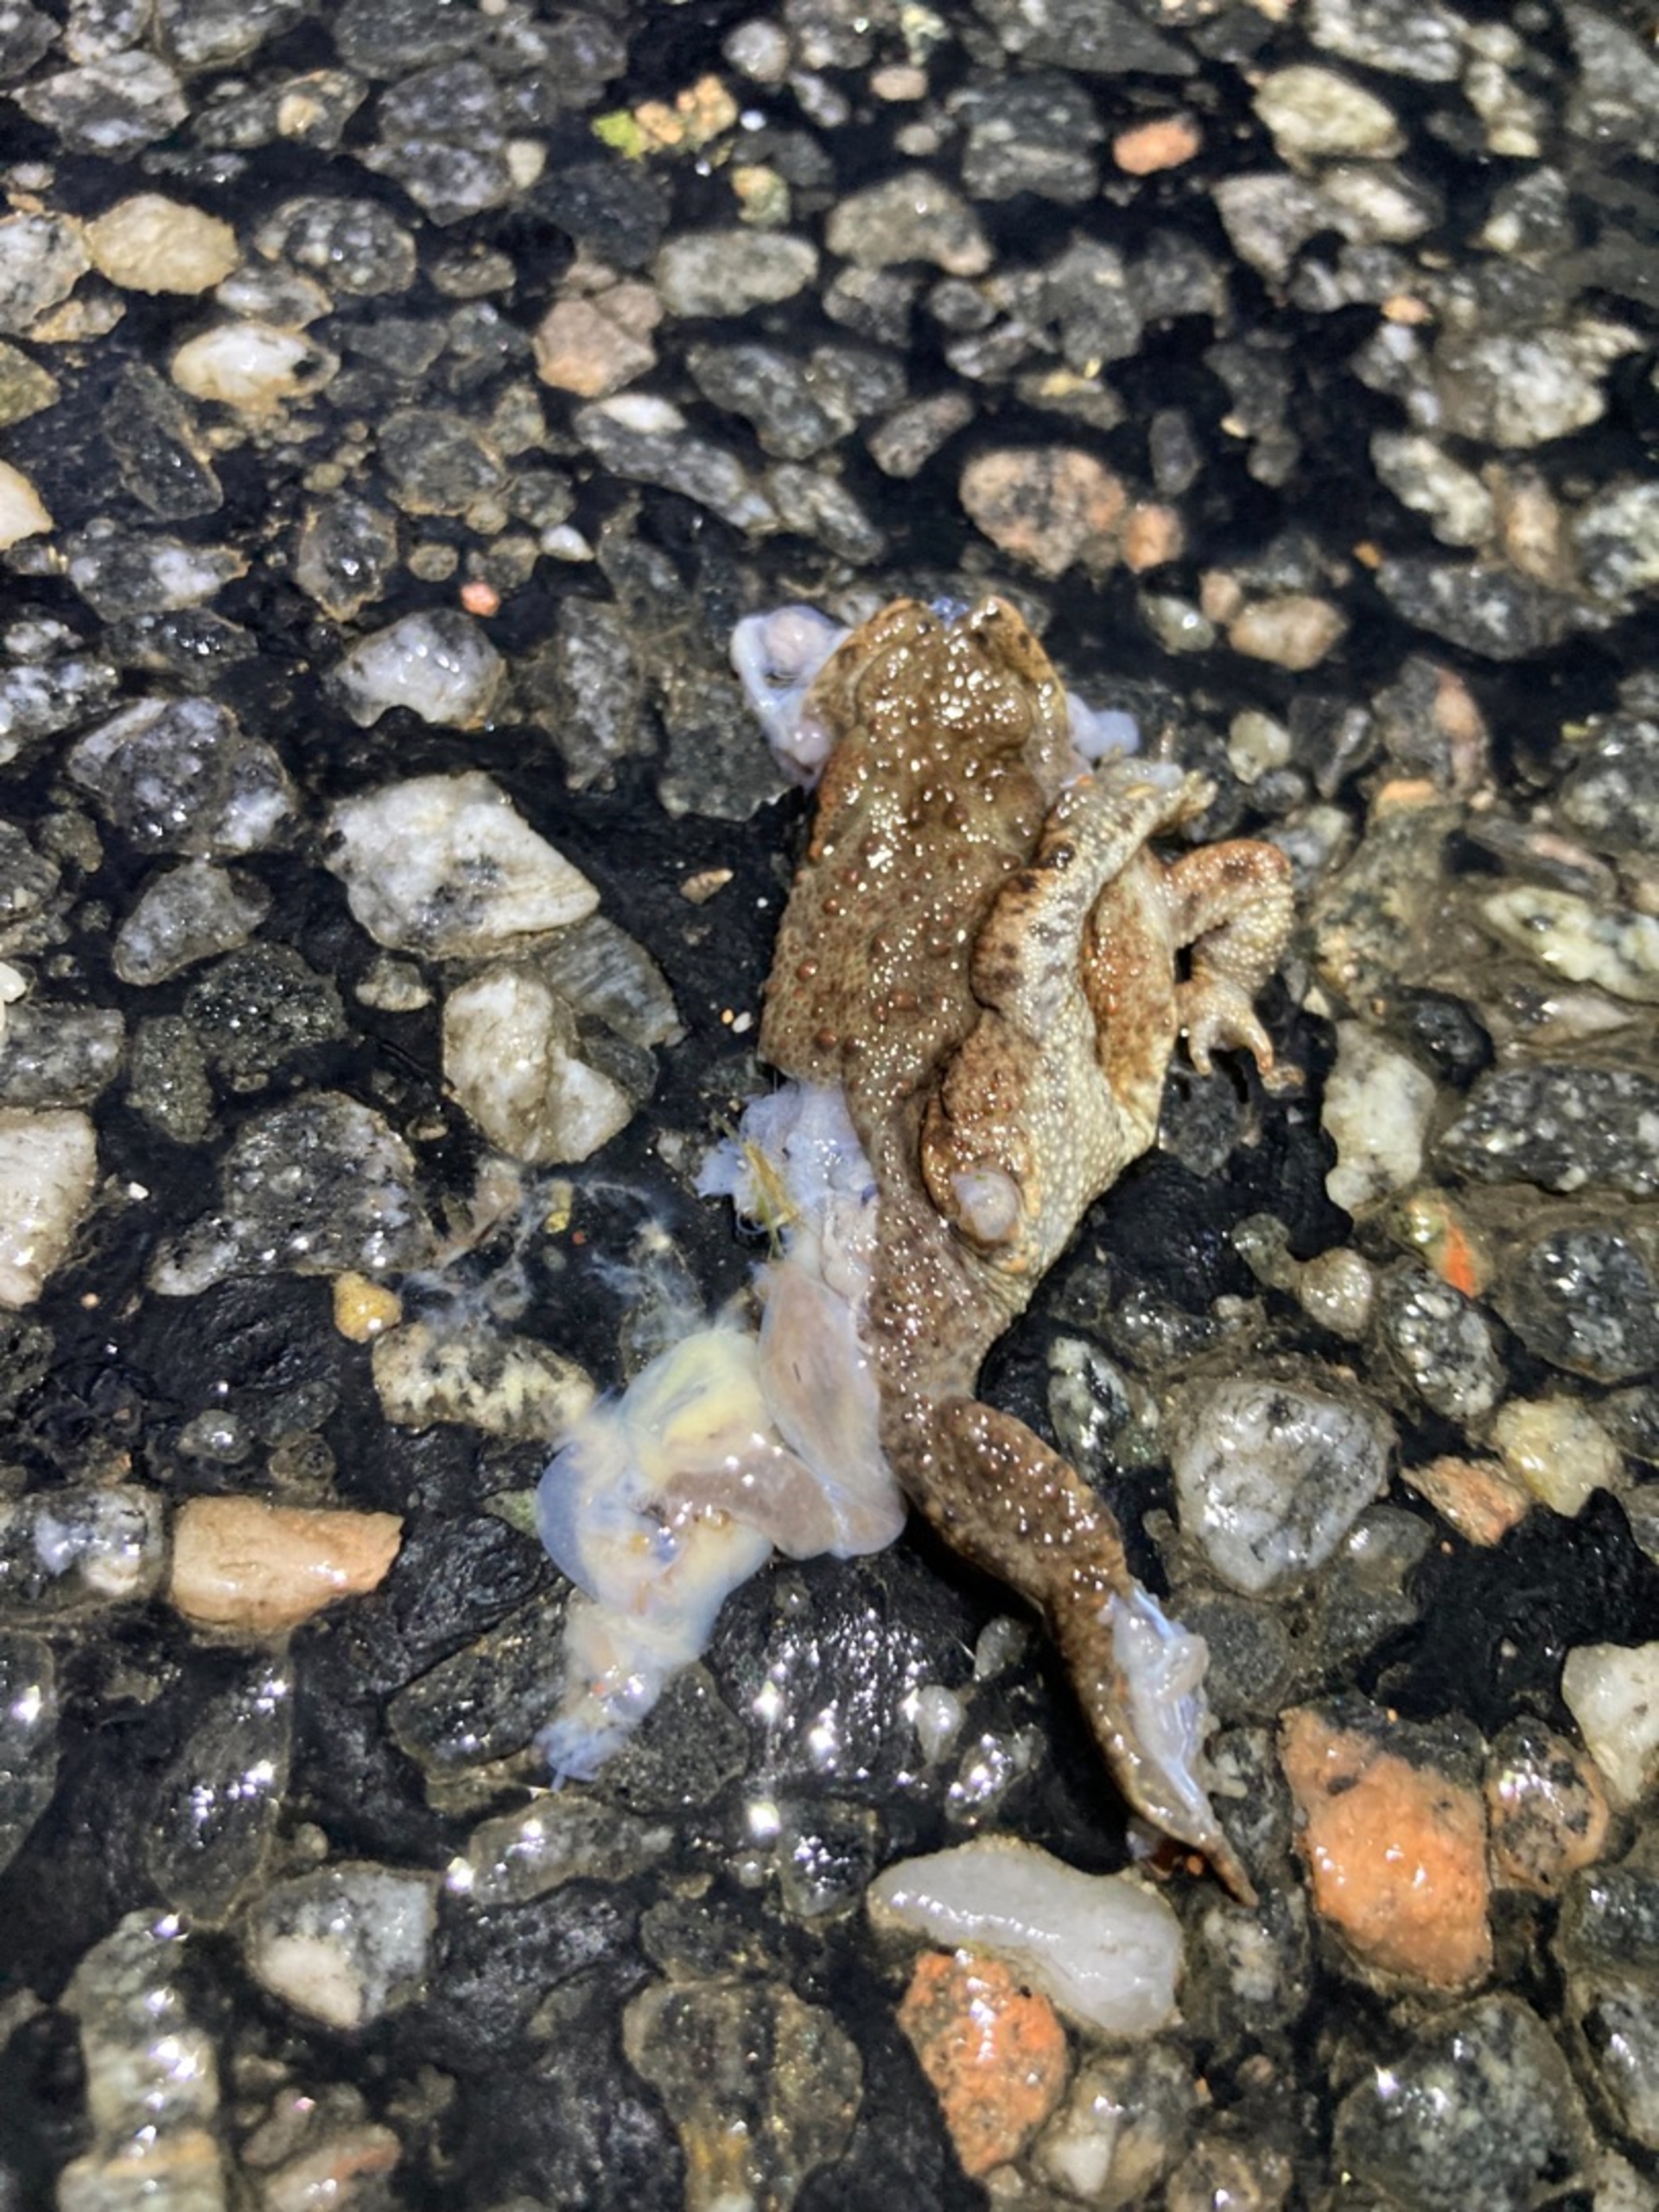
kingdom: Animalia
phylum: Chordata
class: Amphibia
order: Anura
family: Bufonidae
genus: Bufo
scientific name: Bufo bufo
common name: Skrubtudse
